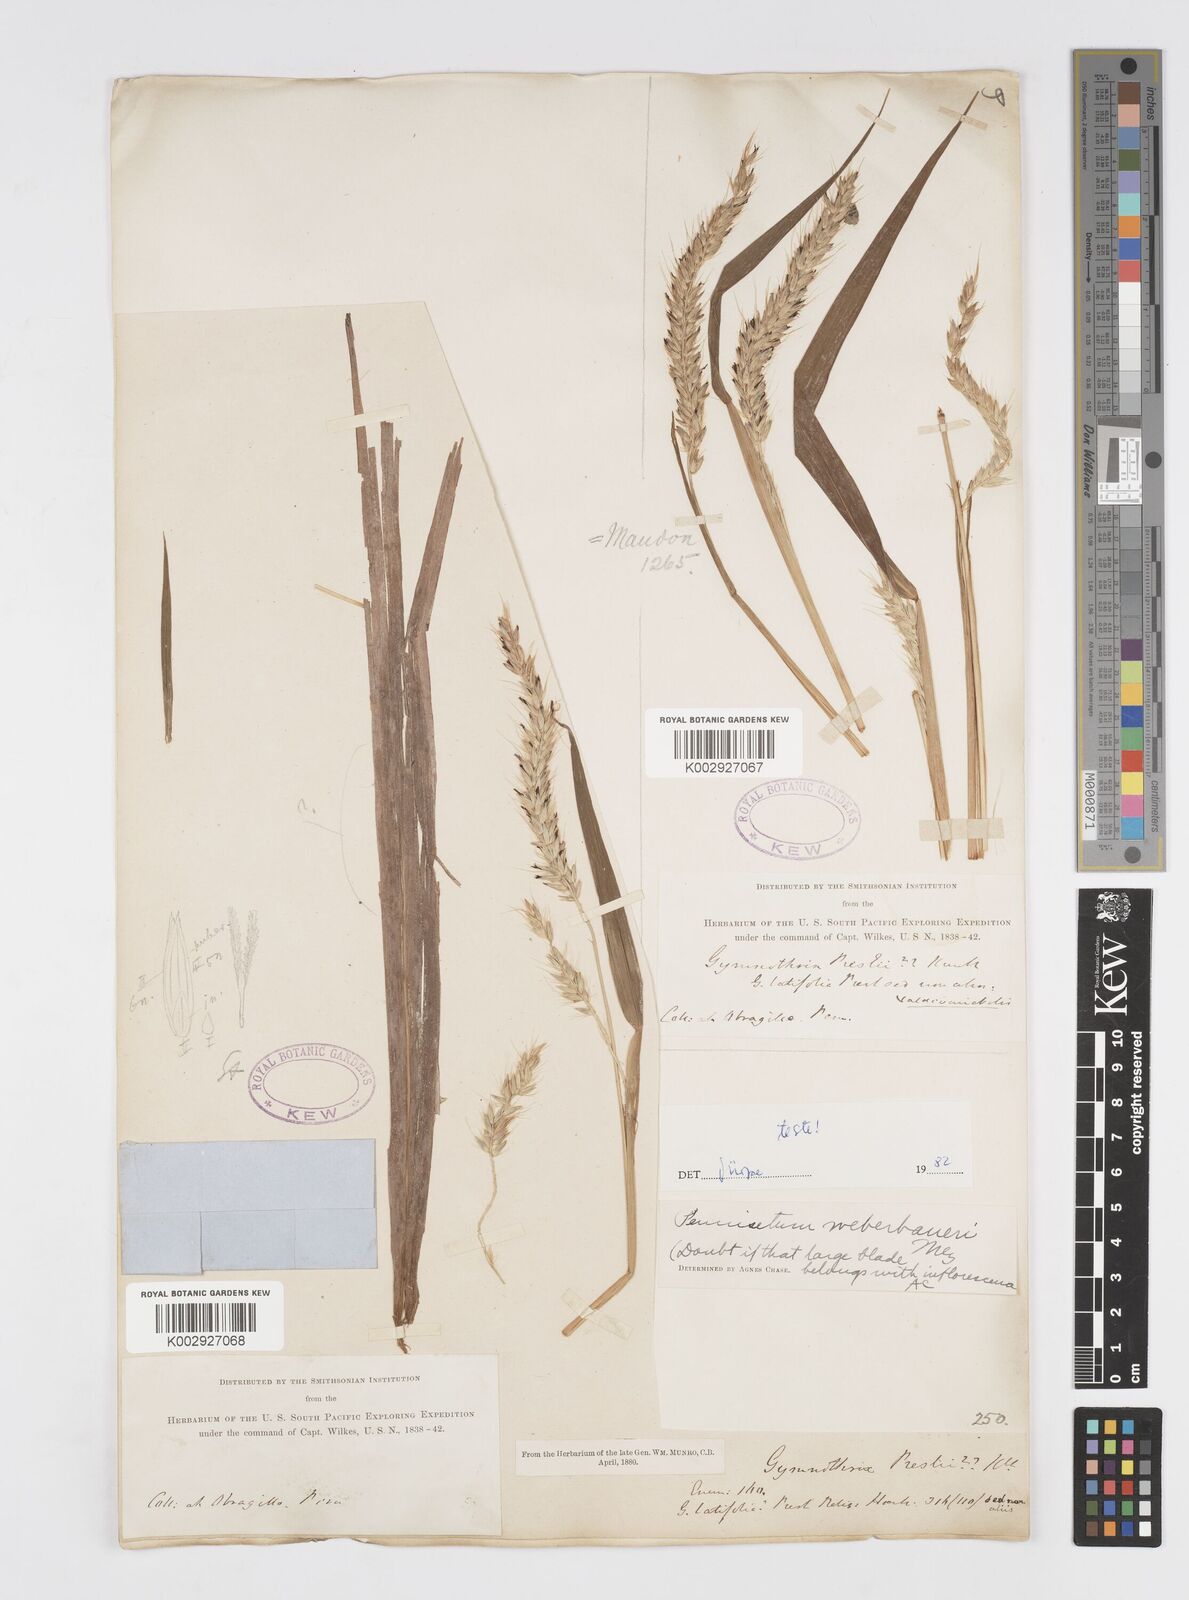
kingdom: Plantae
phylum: Tracheophyta
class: Liliopsida
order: Poales
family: Poaceae
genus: Cenchrus
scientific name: Cenchrus weberbaueri
